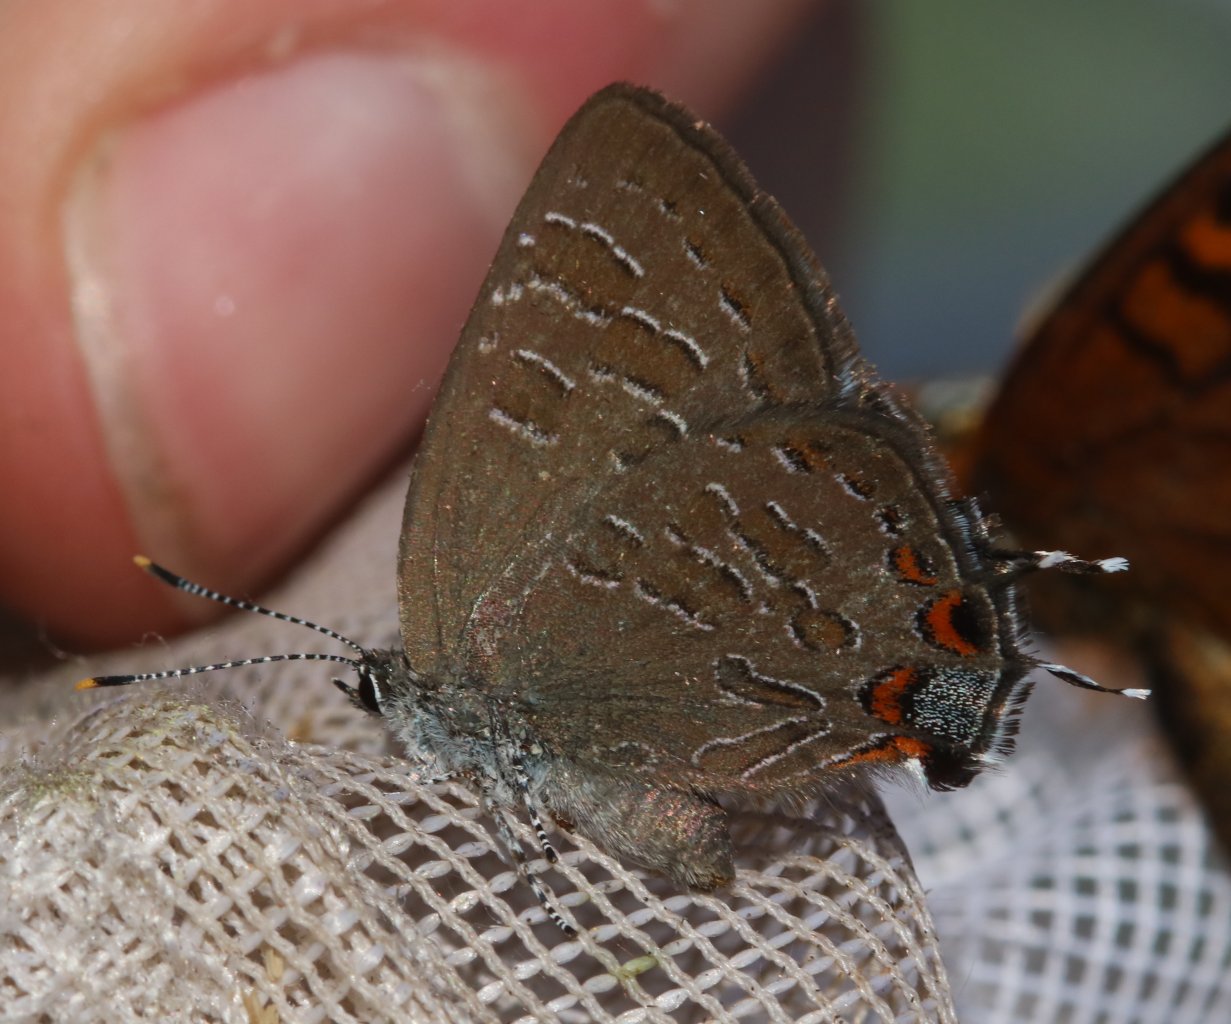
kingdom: Animalia
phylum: Arthropoda
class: Insecta
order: Lepidoptera
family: Lycaenidae
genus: Satyrium
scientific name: Satyrium liparops
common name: Striped Hairstreak
